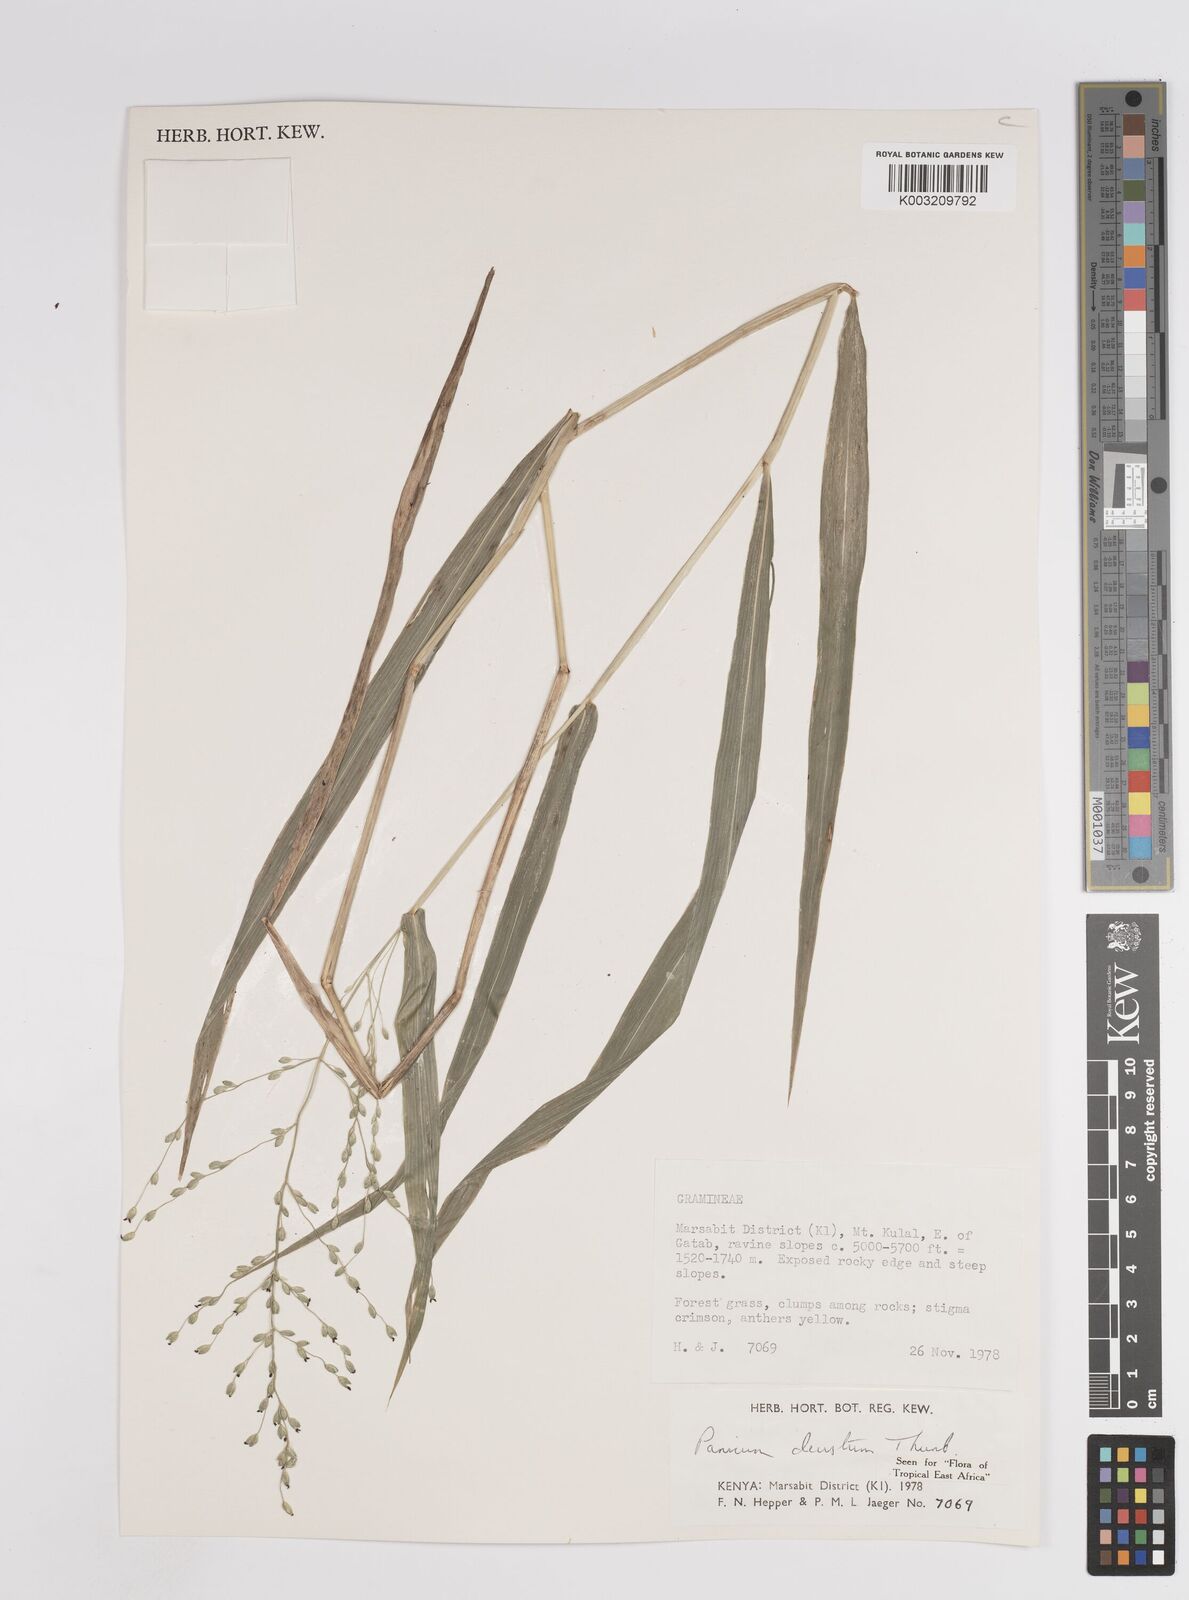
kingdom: Plantae
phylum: Tracheophyta
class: Liliopsida
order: Poales
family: Poaceae
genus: Panicum
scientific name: Panicum deustum
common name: Reed panicum
